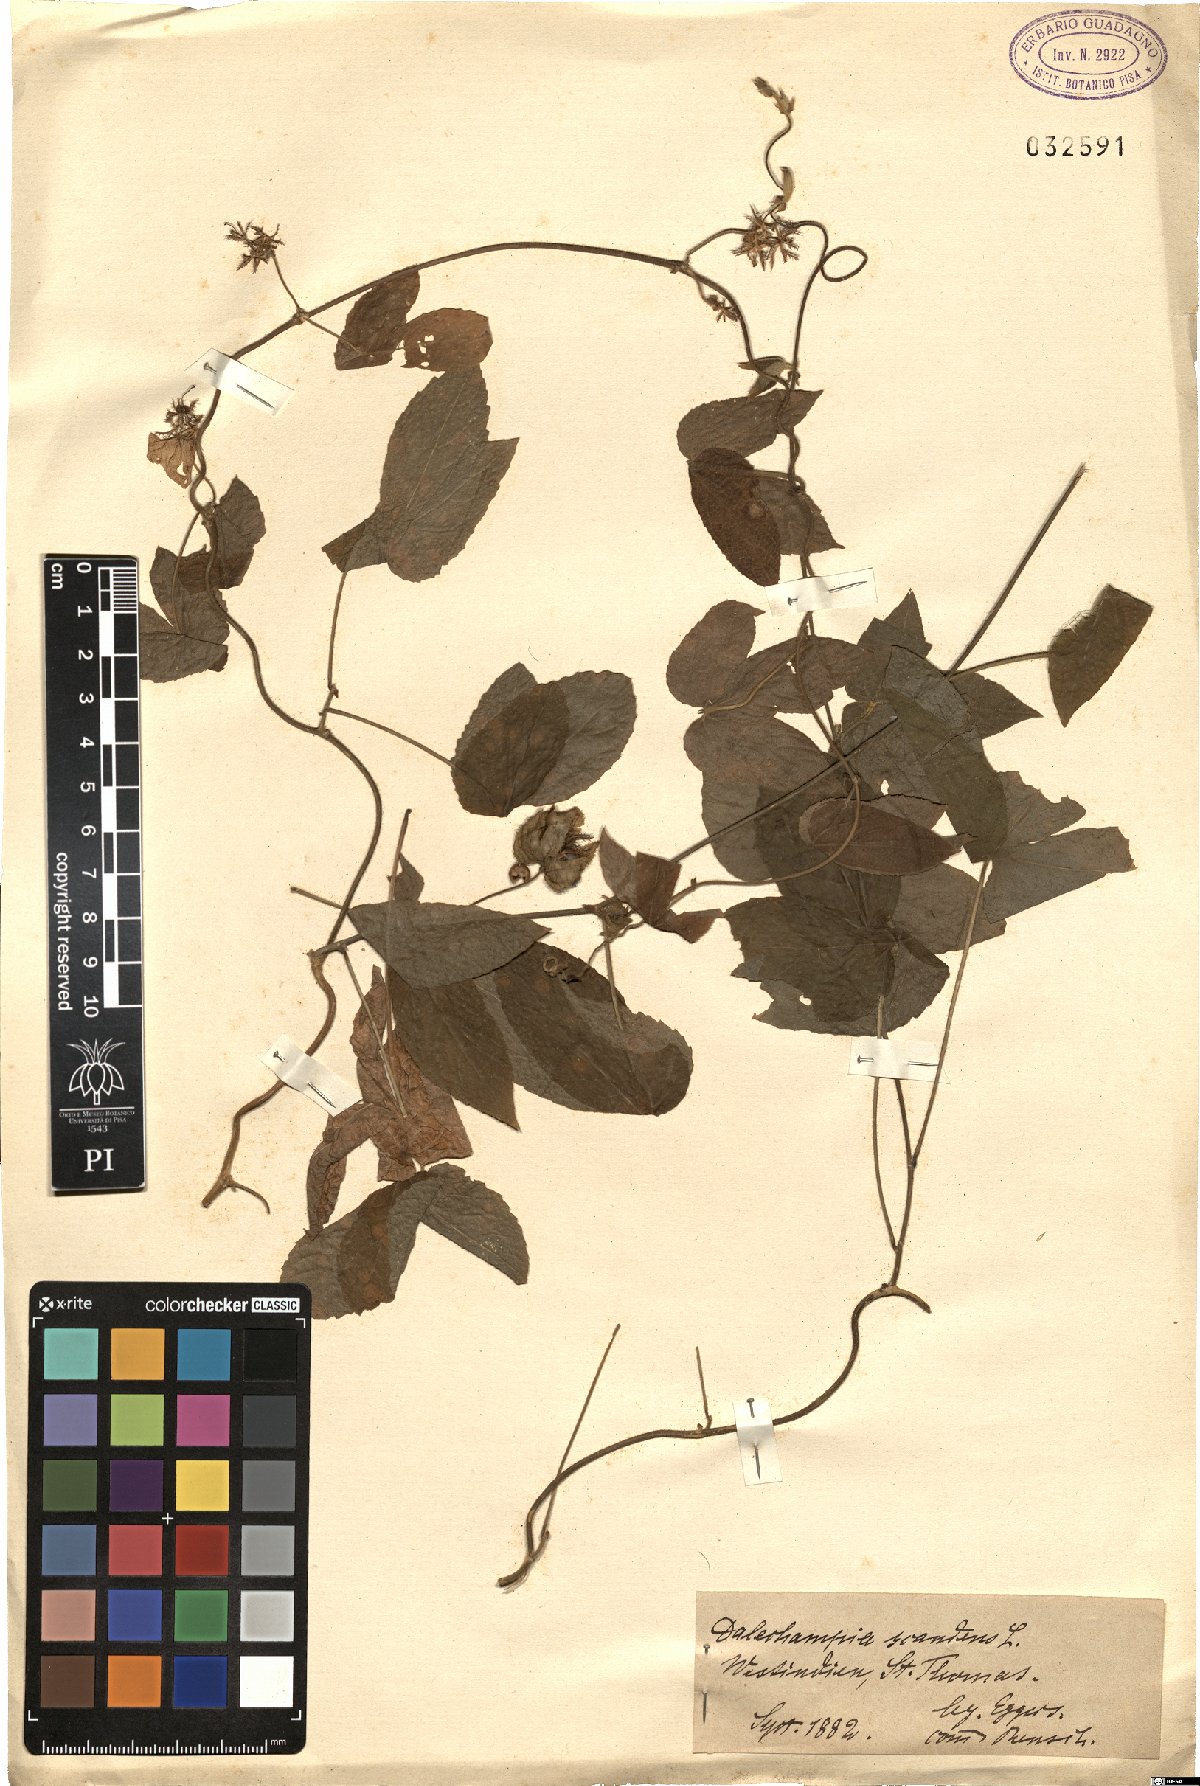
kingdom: Plantae
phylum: Tracheophyta
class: Magnoliopsida
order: Malpighiales
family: Euphorbiaceae
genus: Dalechampia
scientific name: Dalechampia scandens
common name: Spurgecreeper
